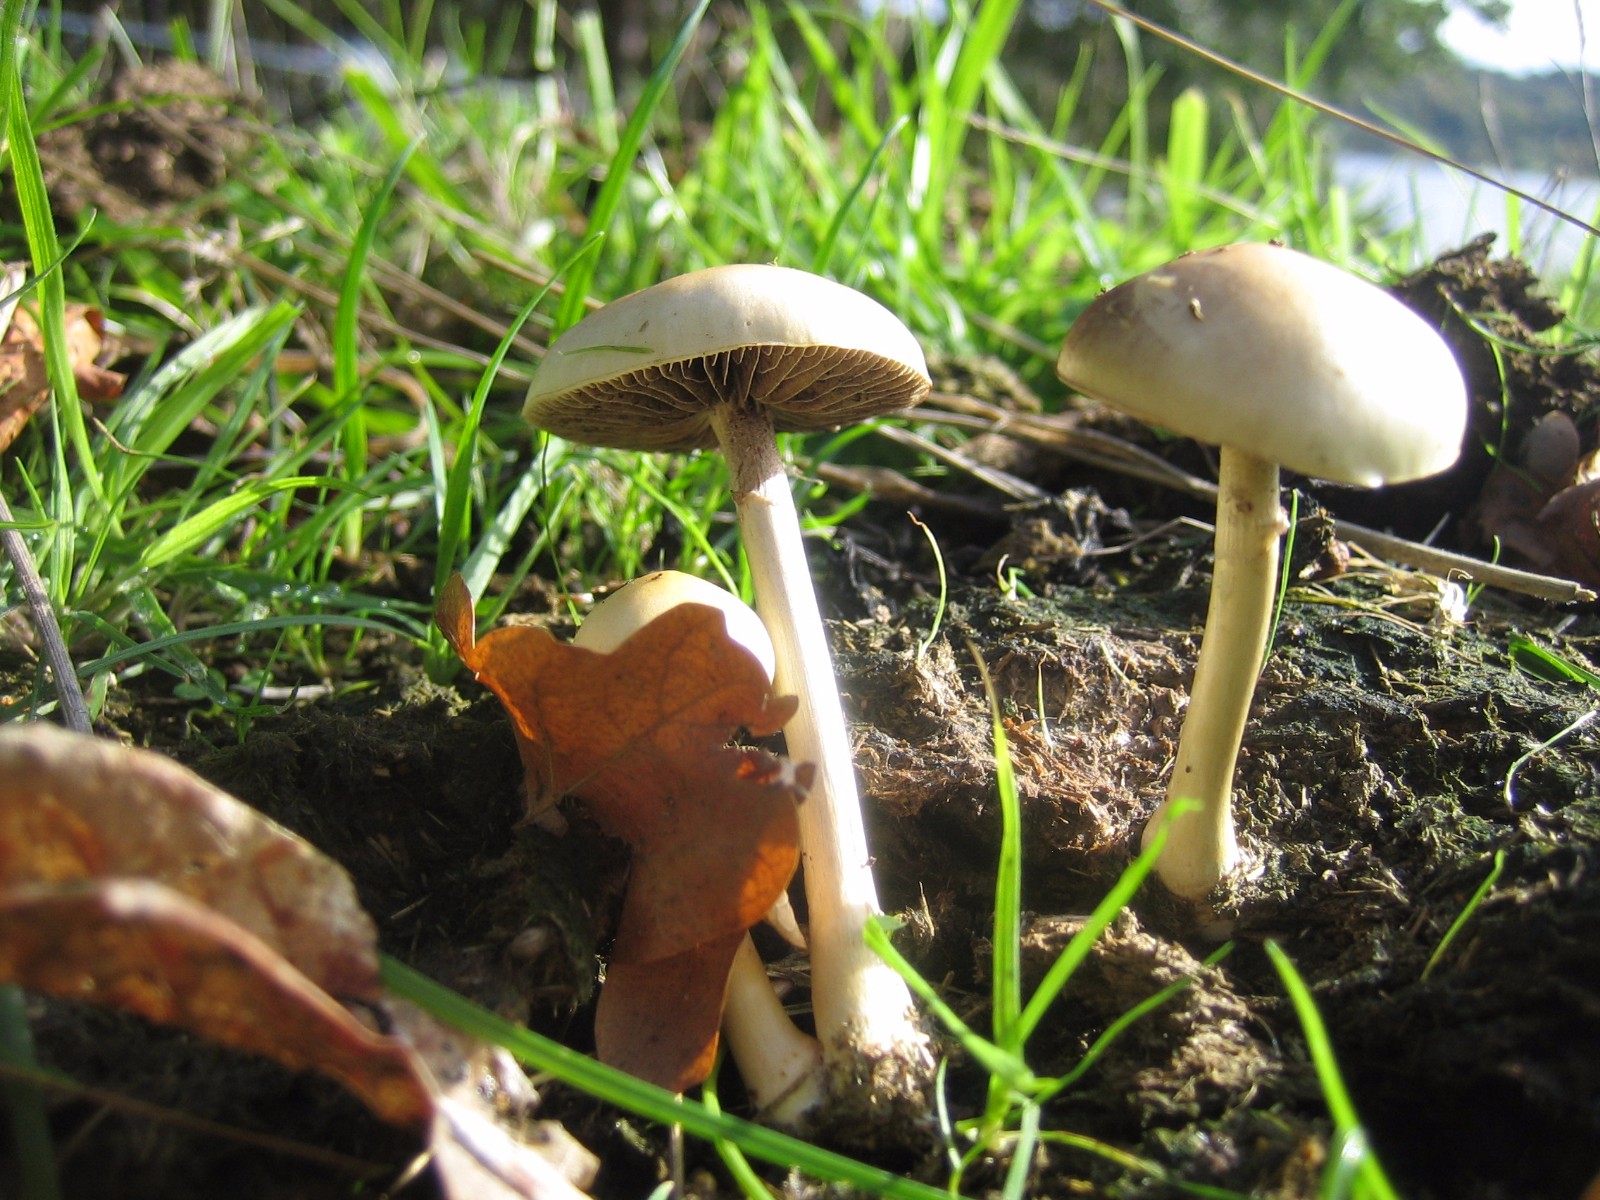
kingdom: Fungi
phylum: Basidiomycota
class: Agaricomycetes
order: Agaricales
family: Strophariaceae
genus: Protostropharia
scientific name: Protostropharia semiglobata
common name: halvkugleformet bredblad
